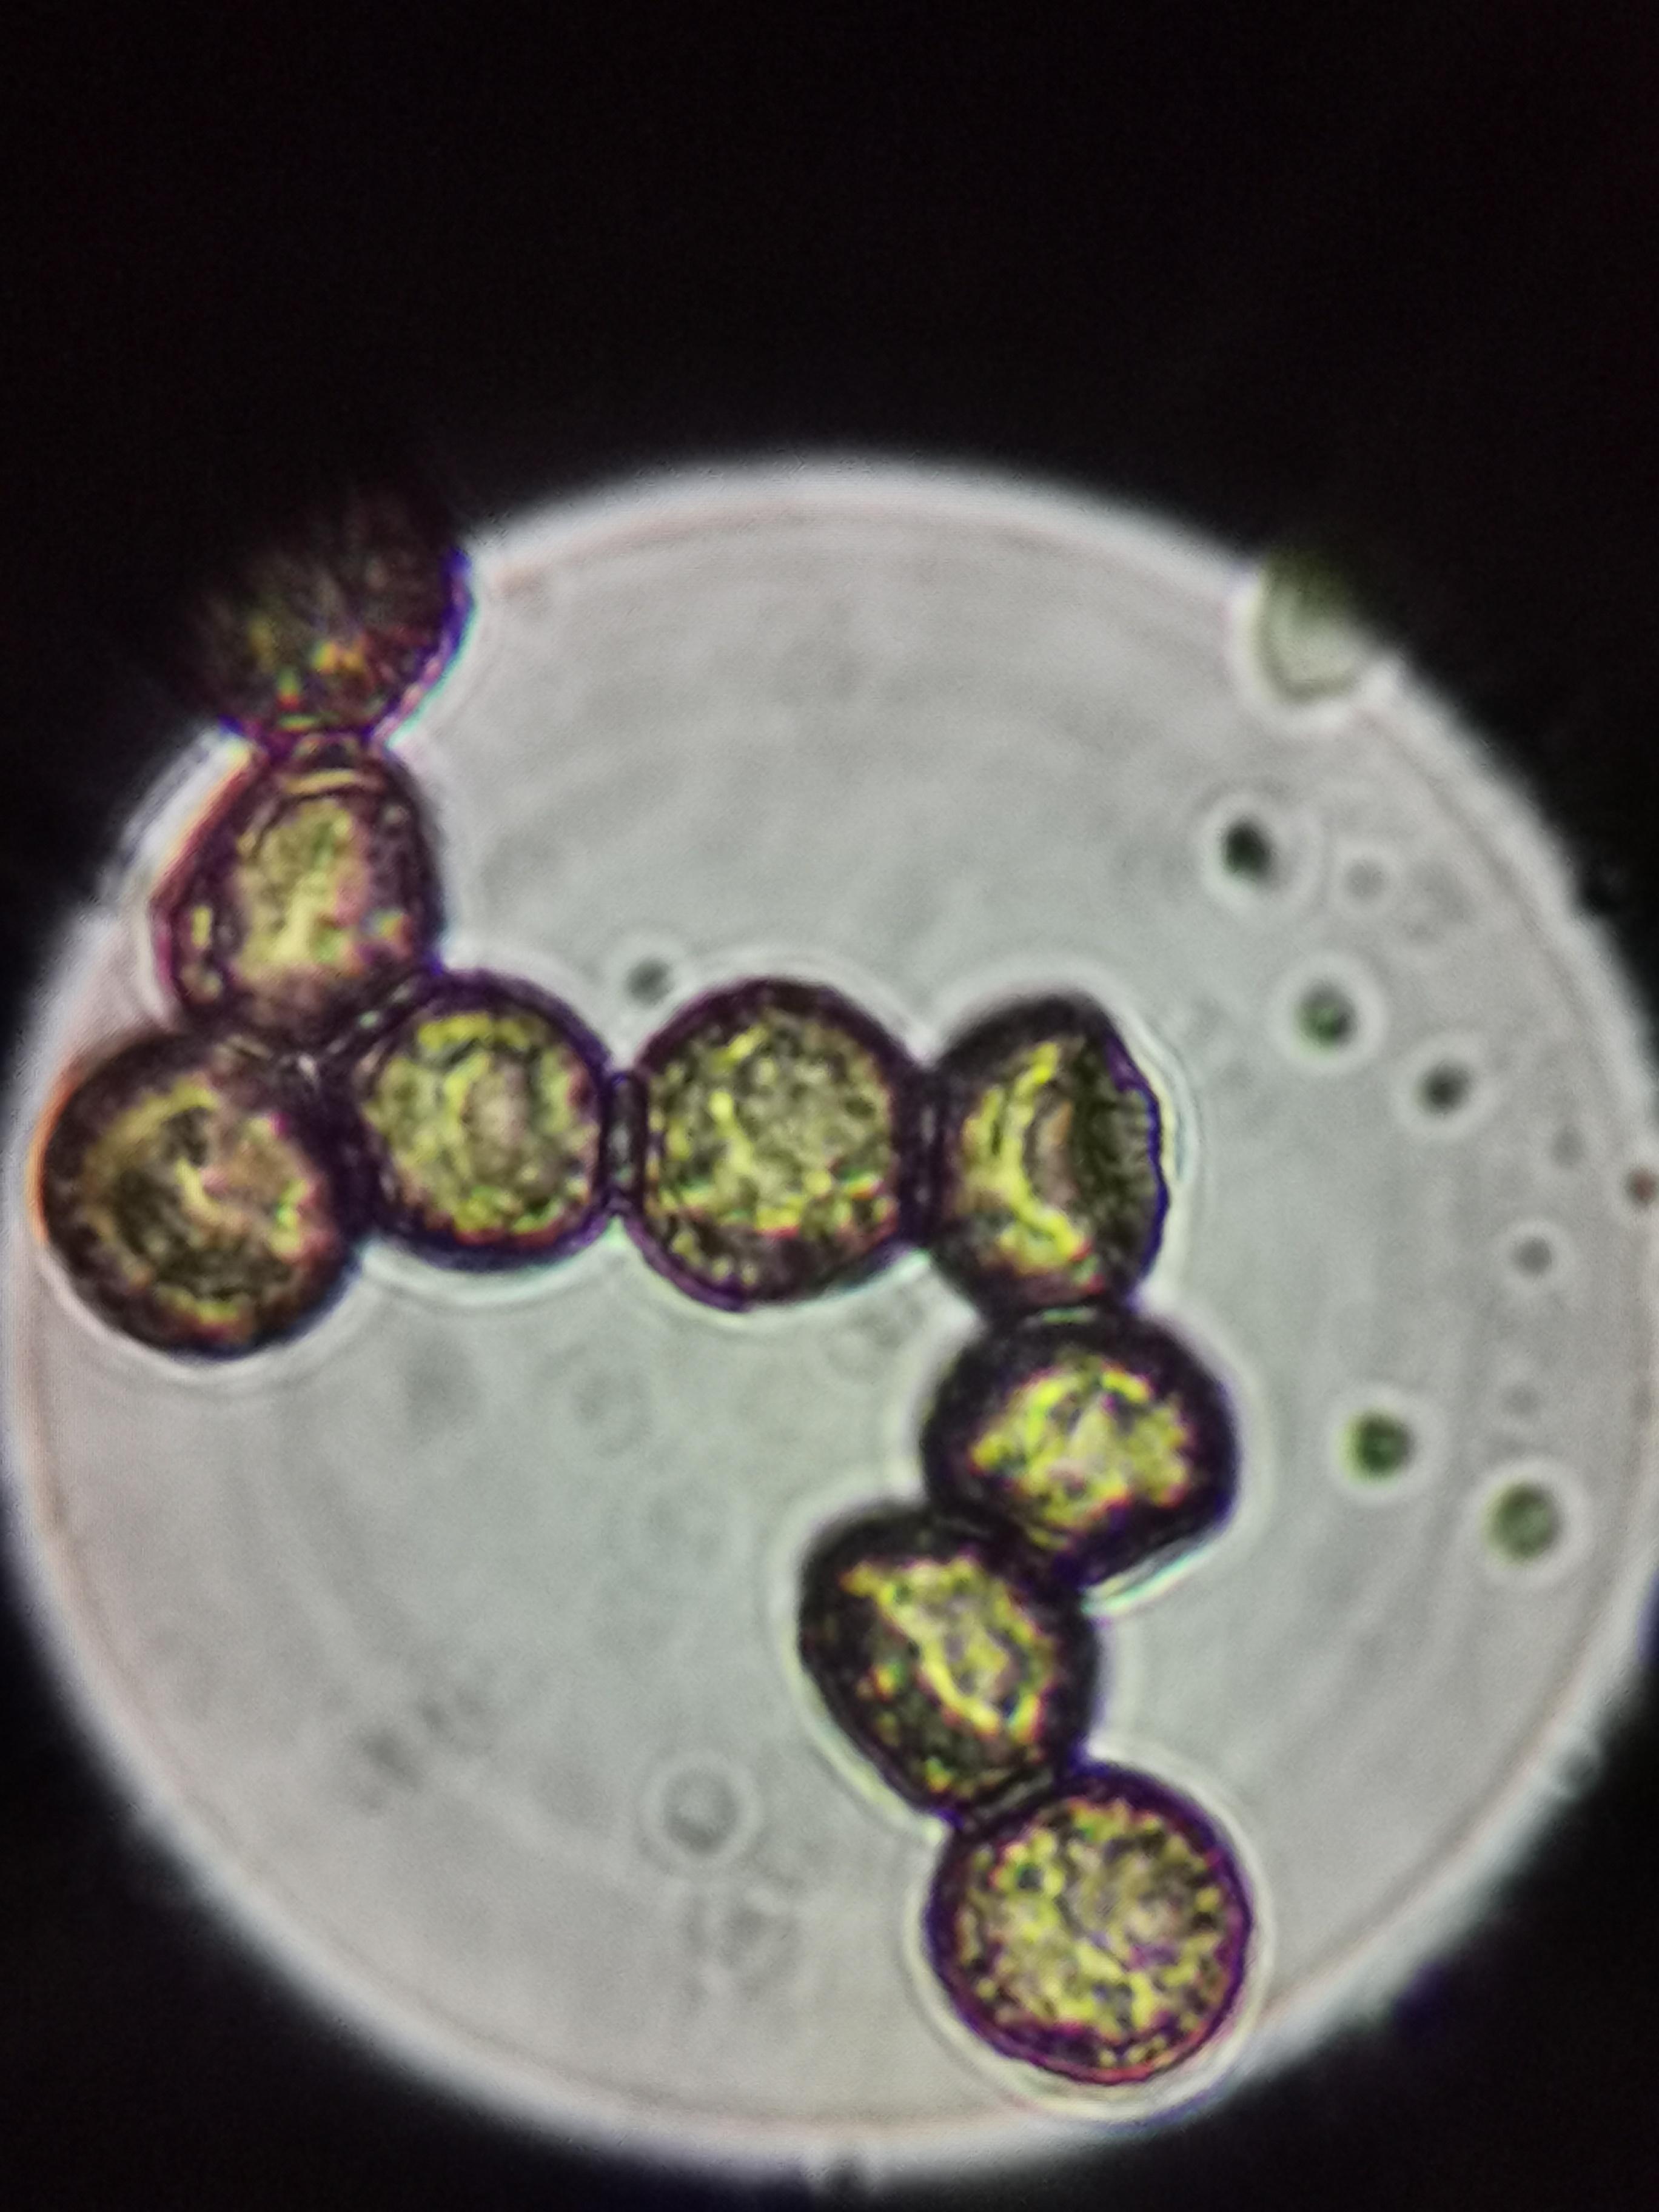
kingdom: Protozoa
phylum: Mycetozoa
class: Myxomycetes
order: Stemonitidales
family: Stemonitidaceae
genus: Stemonitis
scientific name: Stemonitis fusca
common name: sodbrun støvkølle
